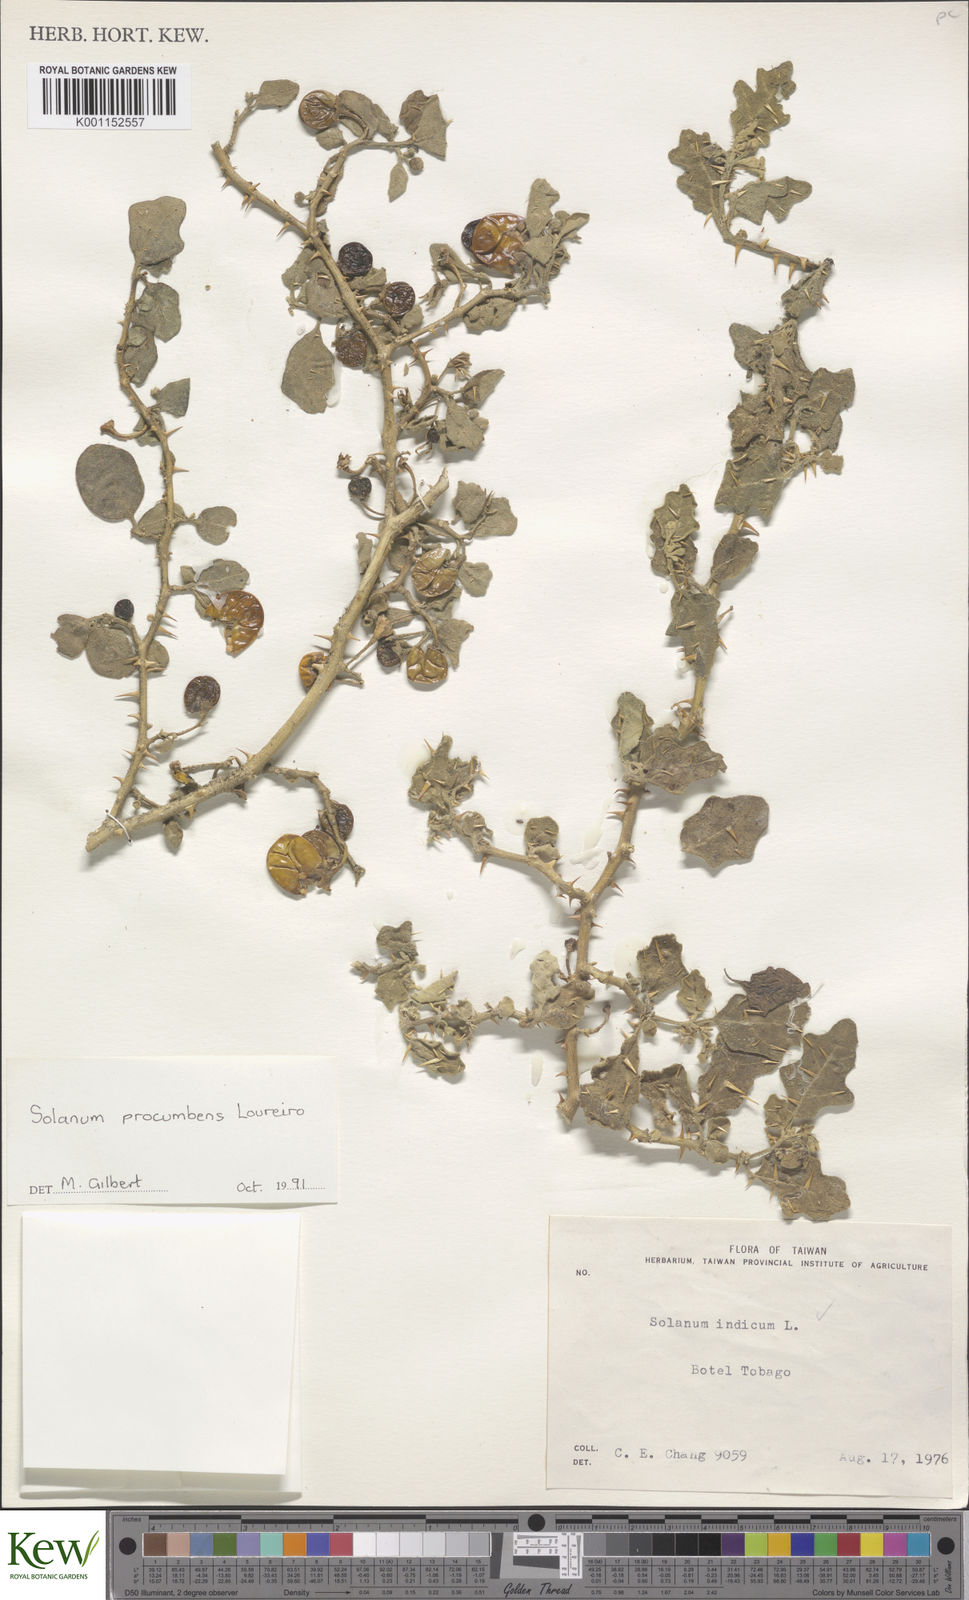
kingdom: Plantae
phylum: Tracheophyta
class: Magnoliopsida
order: Solanales
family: Solanaceae
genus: Solanum
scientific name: Solanum procumbens
